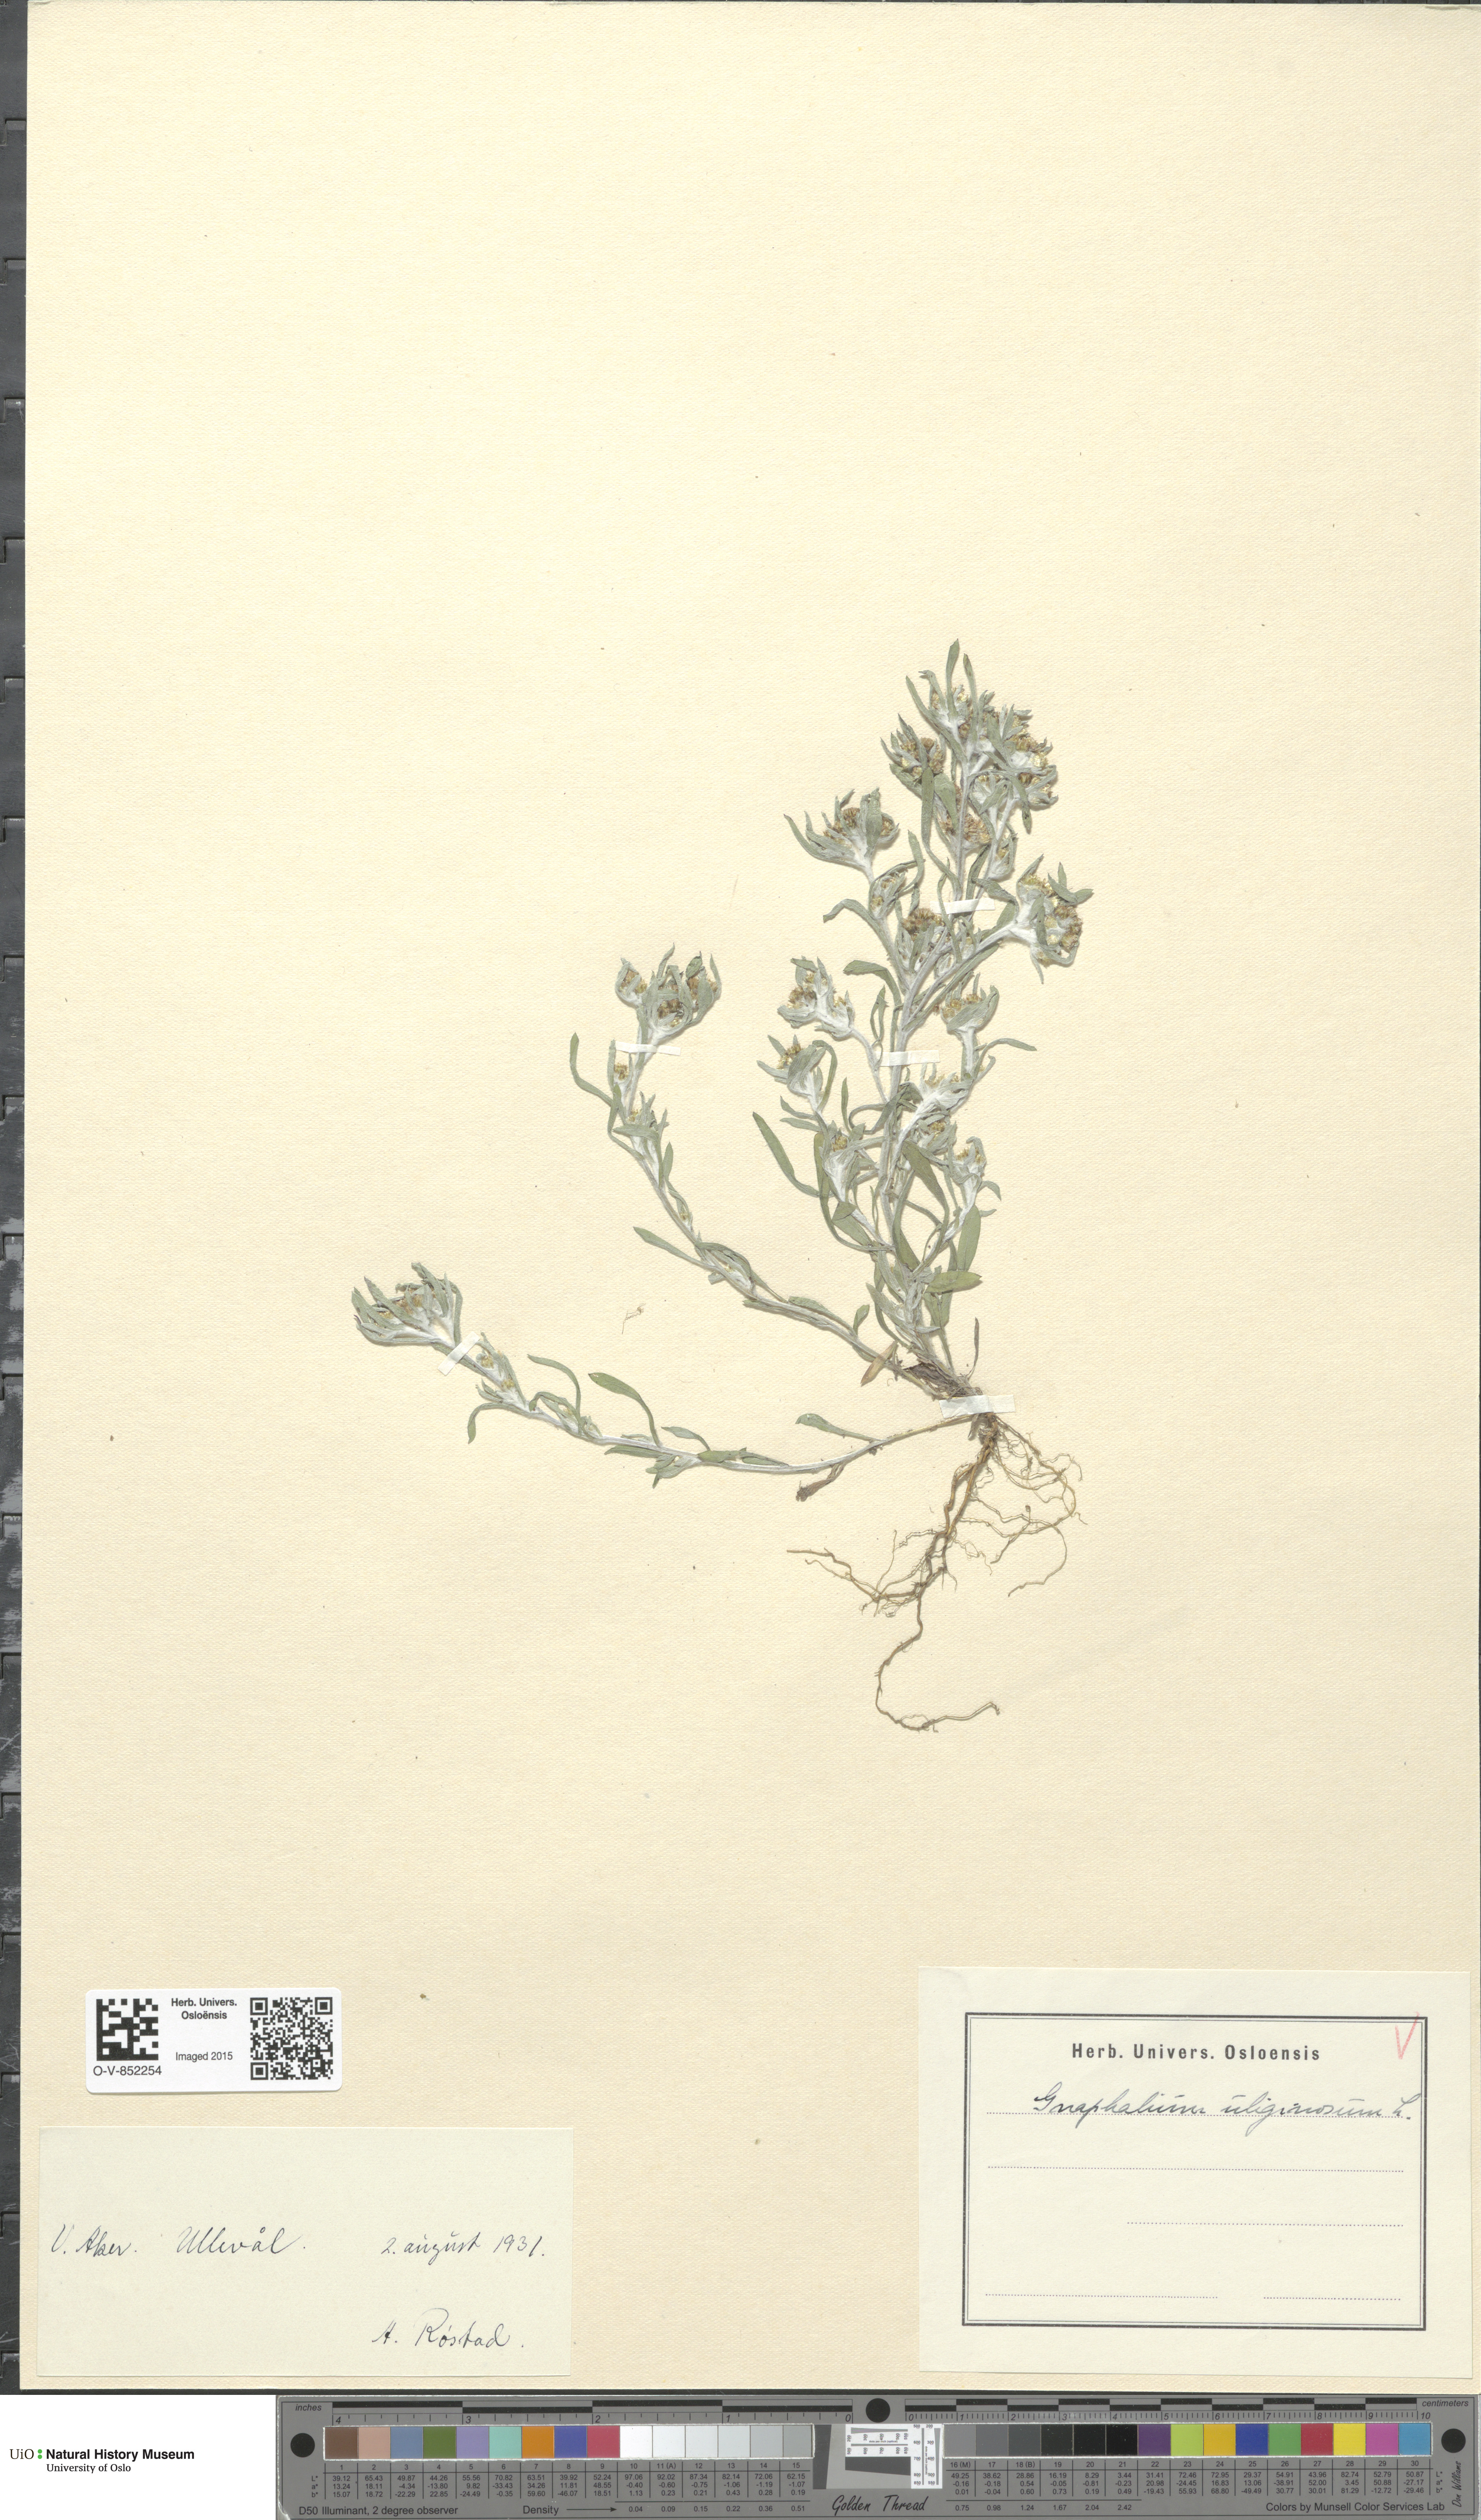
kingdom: Plantae
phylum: Tracheophyta
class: Magnoliopsida
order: Asterales
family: Asteraceae
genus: Gnaphalium
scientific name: Gnaphalium uliginosum
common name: Marsh cudweed
